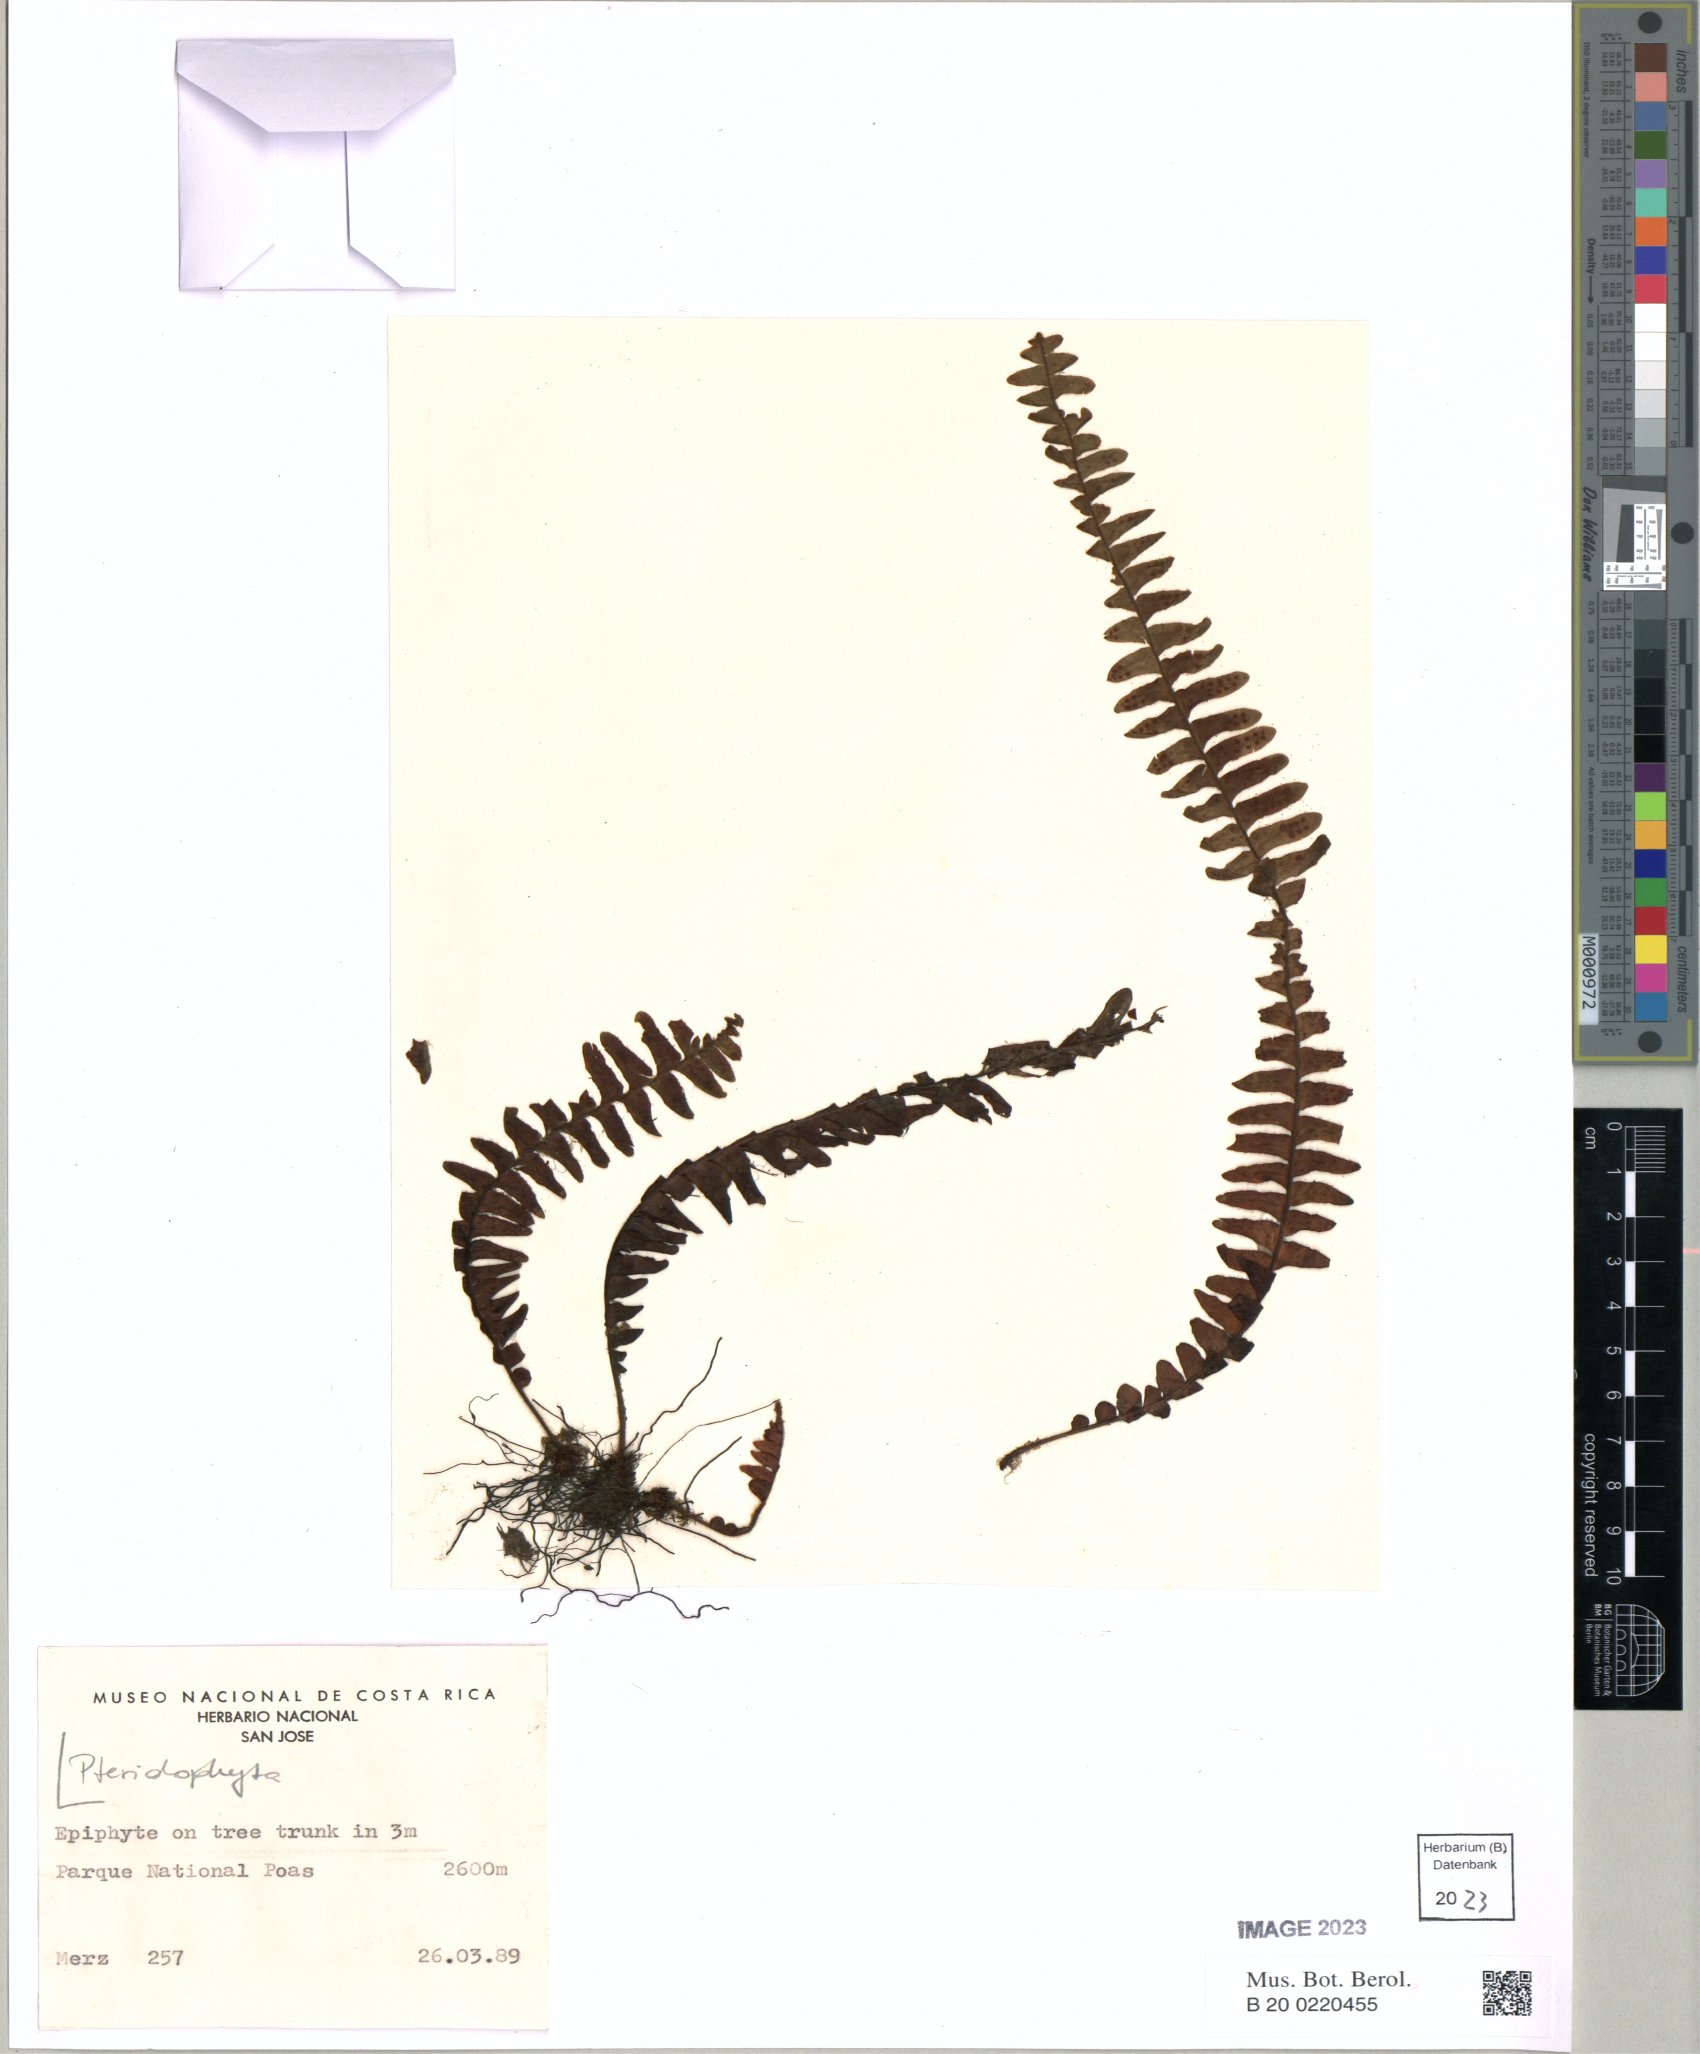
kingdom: Plantae
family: Pteridophyta
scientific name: Pteridophyta
